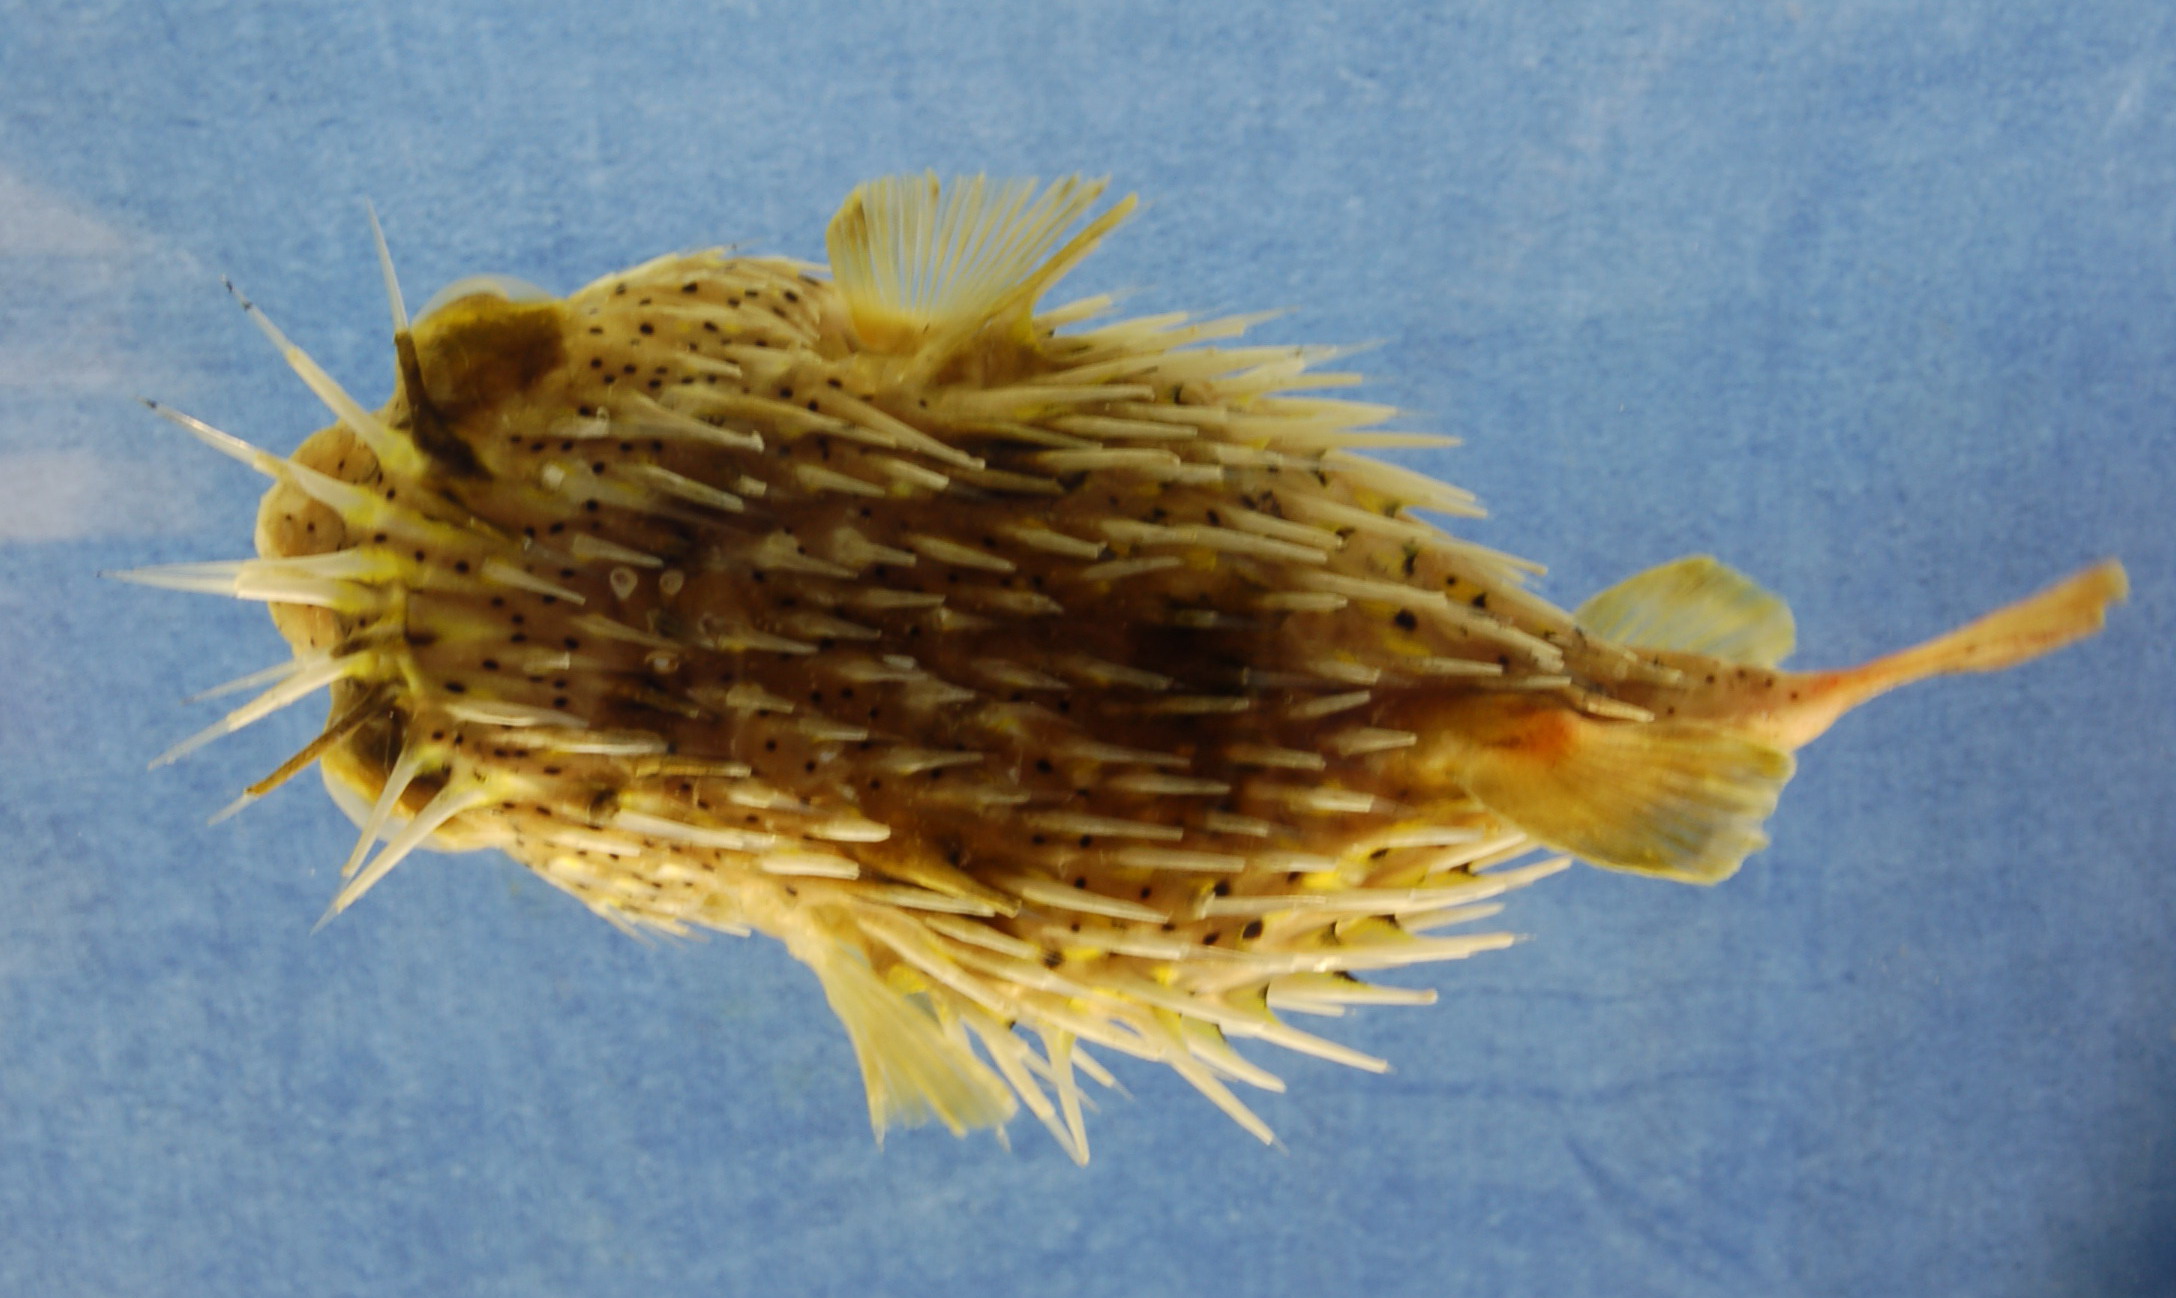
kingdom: Animalia
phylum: Chordata
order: Tetraodontiformes
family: Diodontidae
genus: Diodon
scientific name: Diodon holocanthus
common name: Balloonfish
